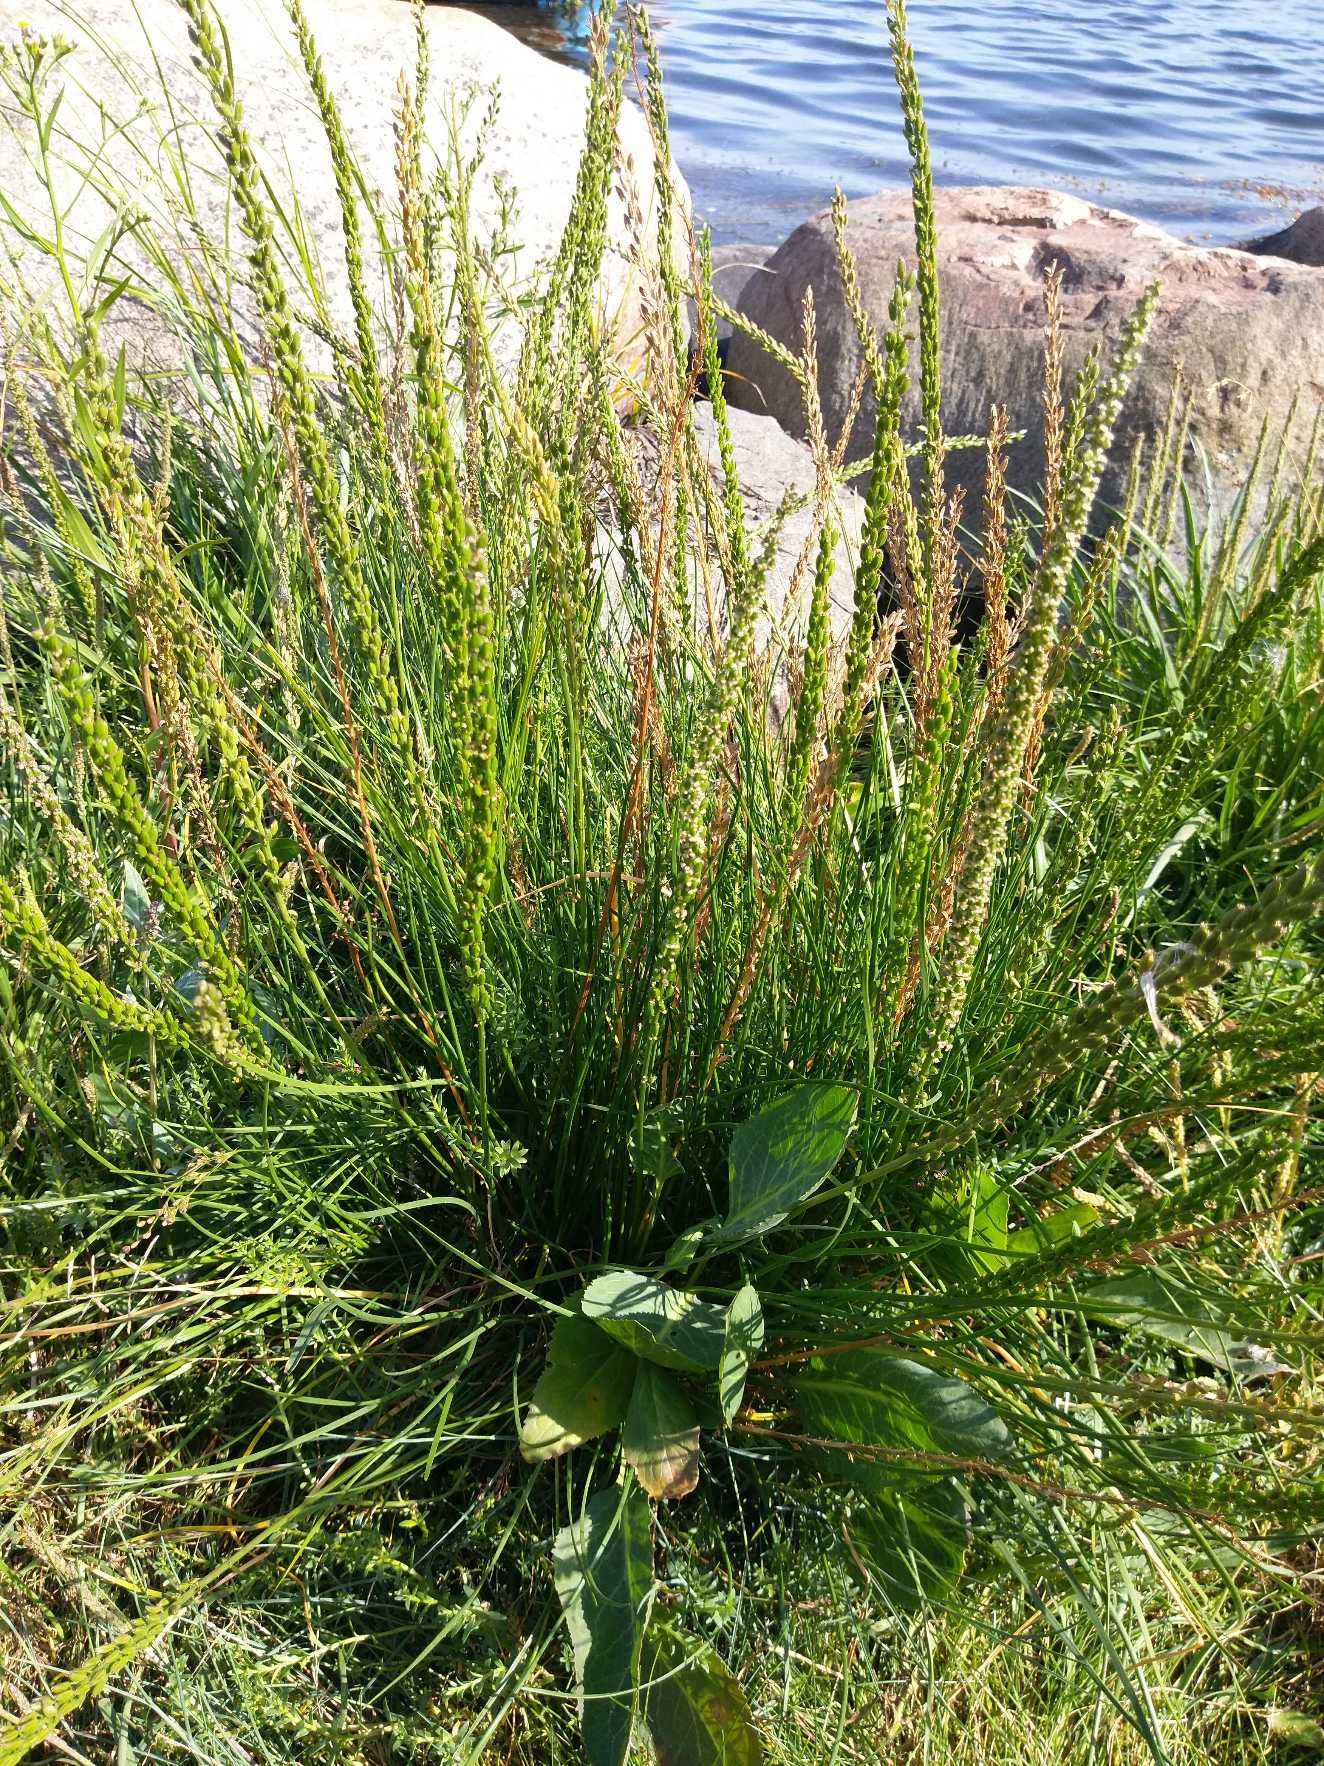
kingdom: Plantae
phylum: Tracheophyta
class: Liliopsida
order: Alismatales
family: Juncaginaceae
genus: Triglochin
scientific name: Triglochin maritima
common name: Strand-trehage
